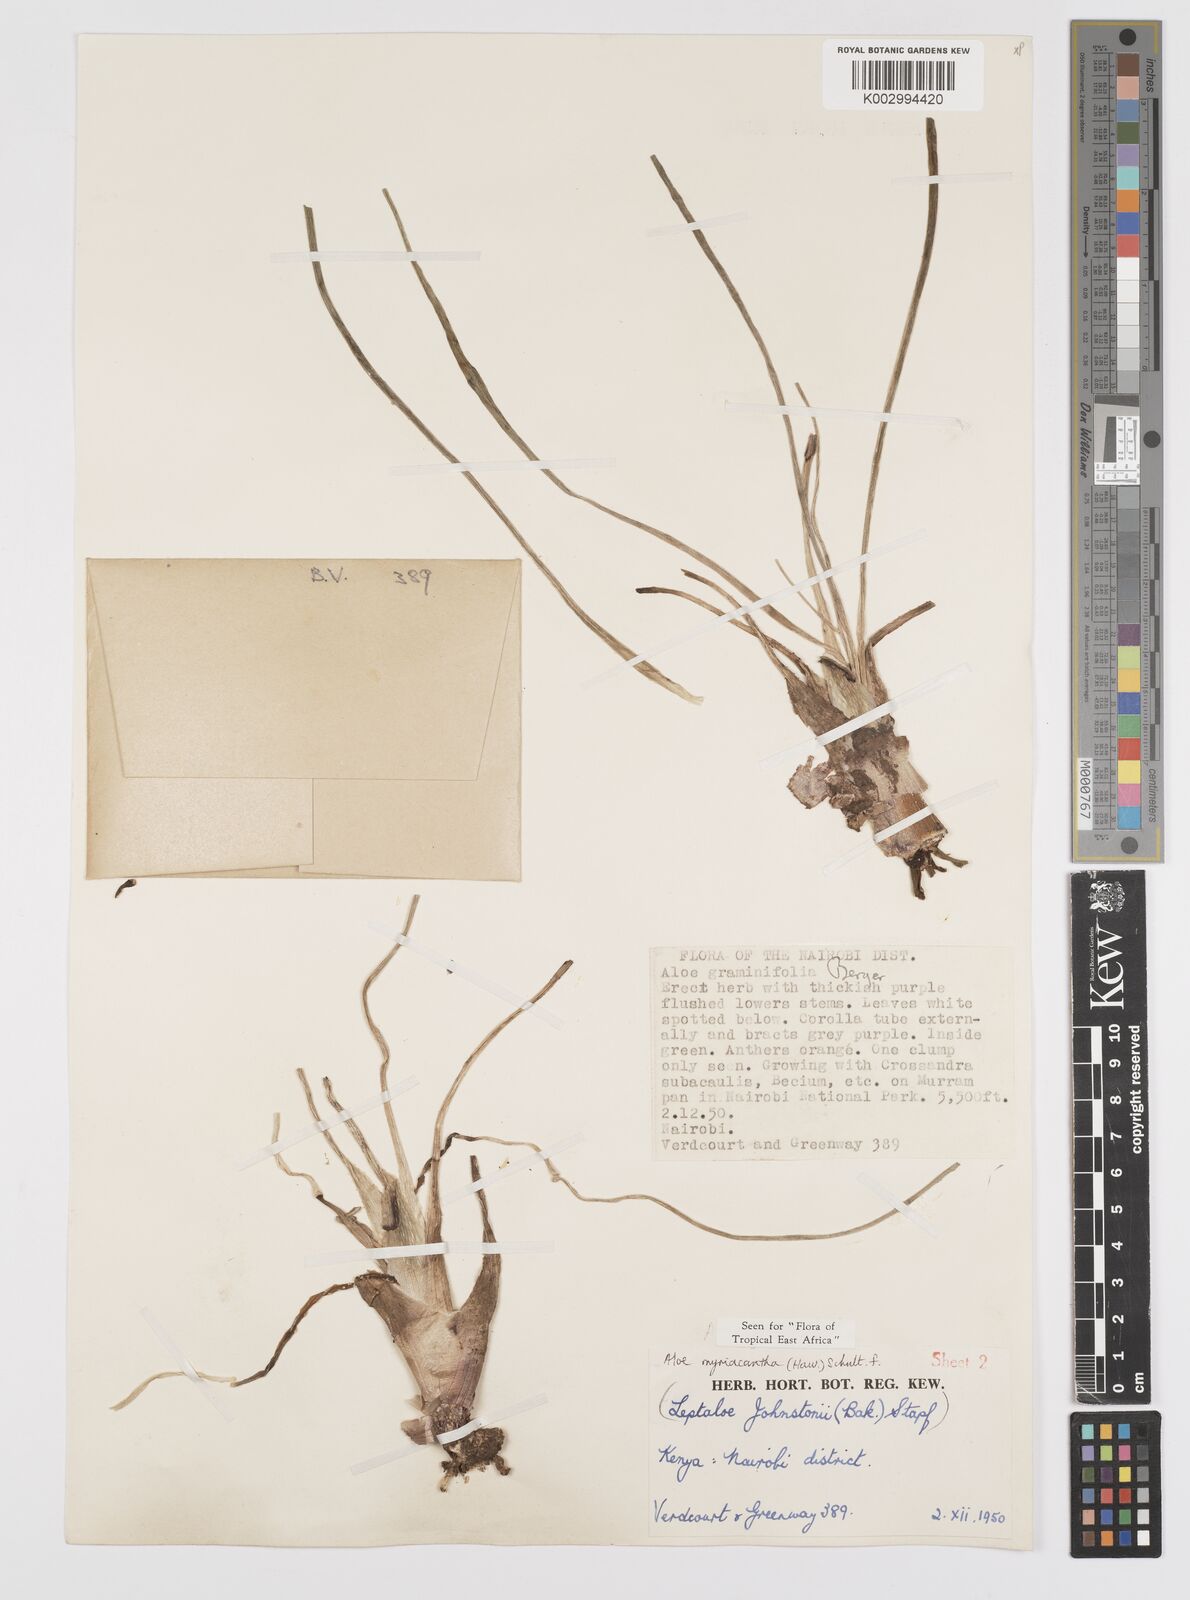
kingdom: Plantae
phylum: Tracheophyta
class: Liliopsida
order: Asparagales
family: Asphodelaceae
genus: Aloe
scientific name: Aloe myriacantha
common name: Grass aloe
